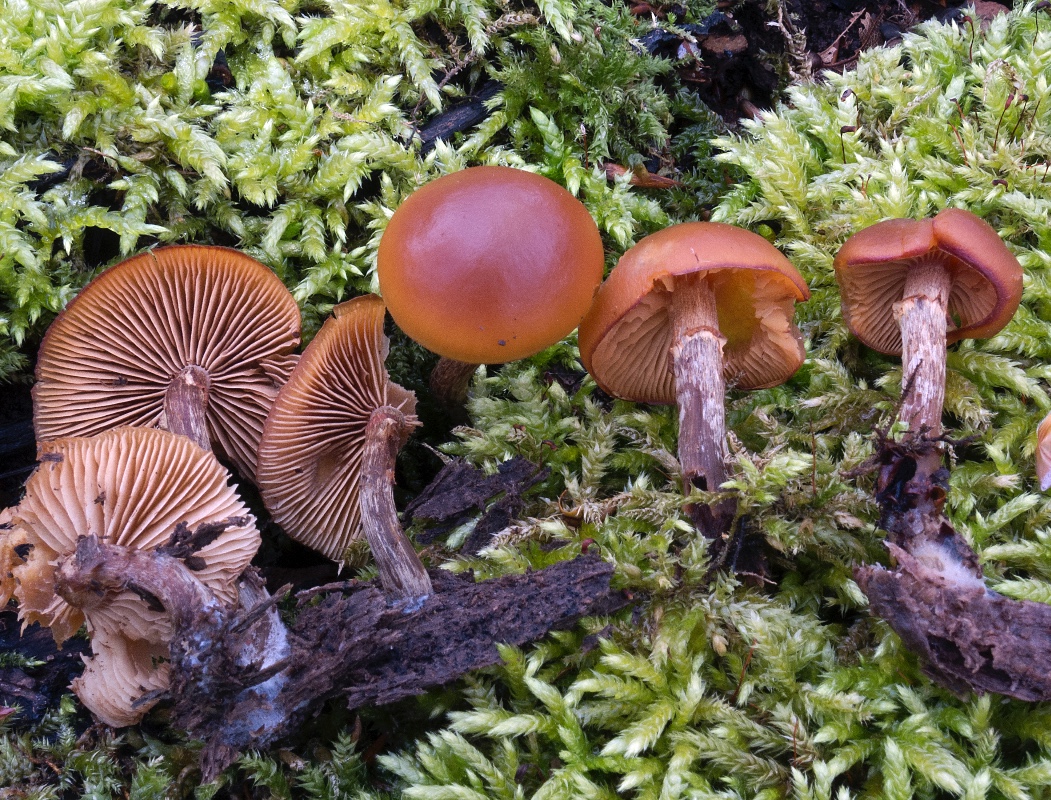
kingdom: Fungi
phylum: Basidiomycota
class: Agaricomycetes
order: Agaricales
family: Hymenogastraceae
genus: Galerina
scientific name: Galerina marginata
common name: randbæltet hjelmhat
